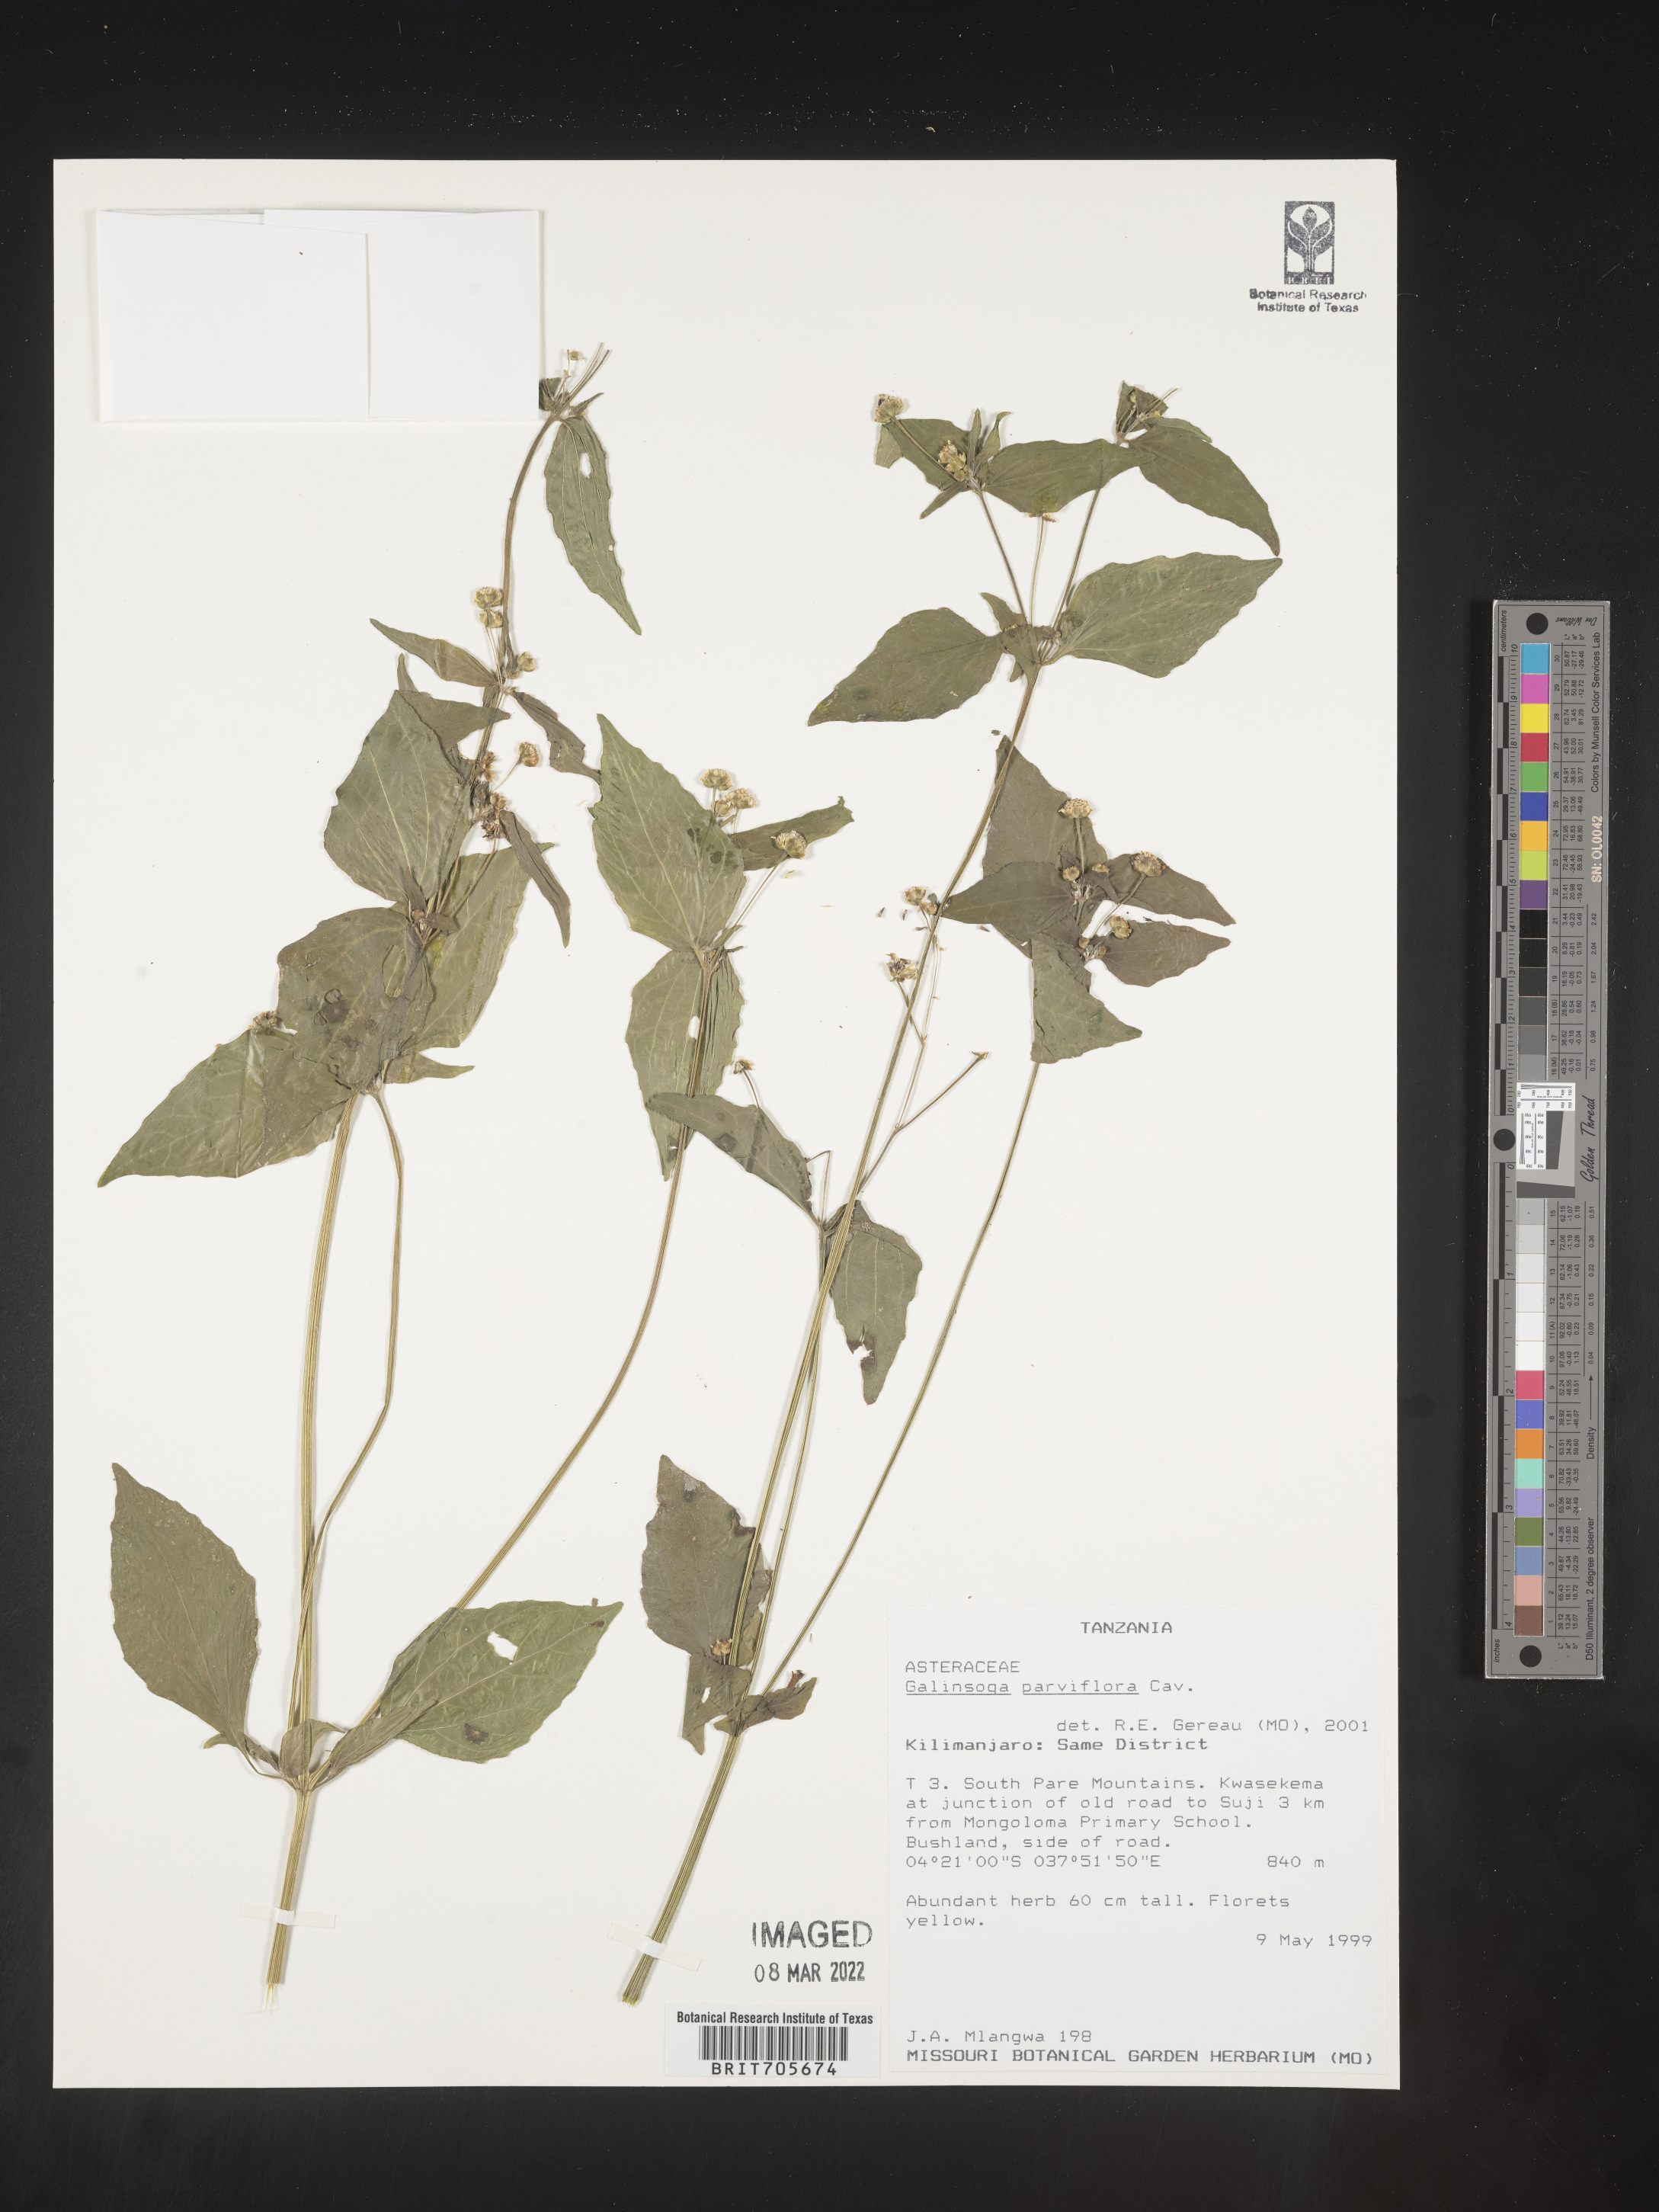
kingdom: Plantae
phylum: Tracheophyta
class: Magnoliopsida
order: Asterales
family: Asteraceae
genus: Galinsoga
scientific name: Galinsoga
